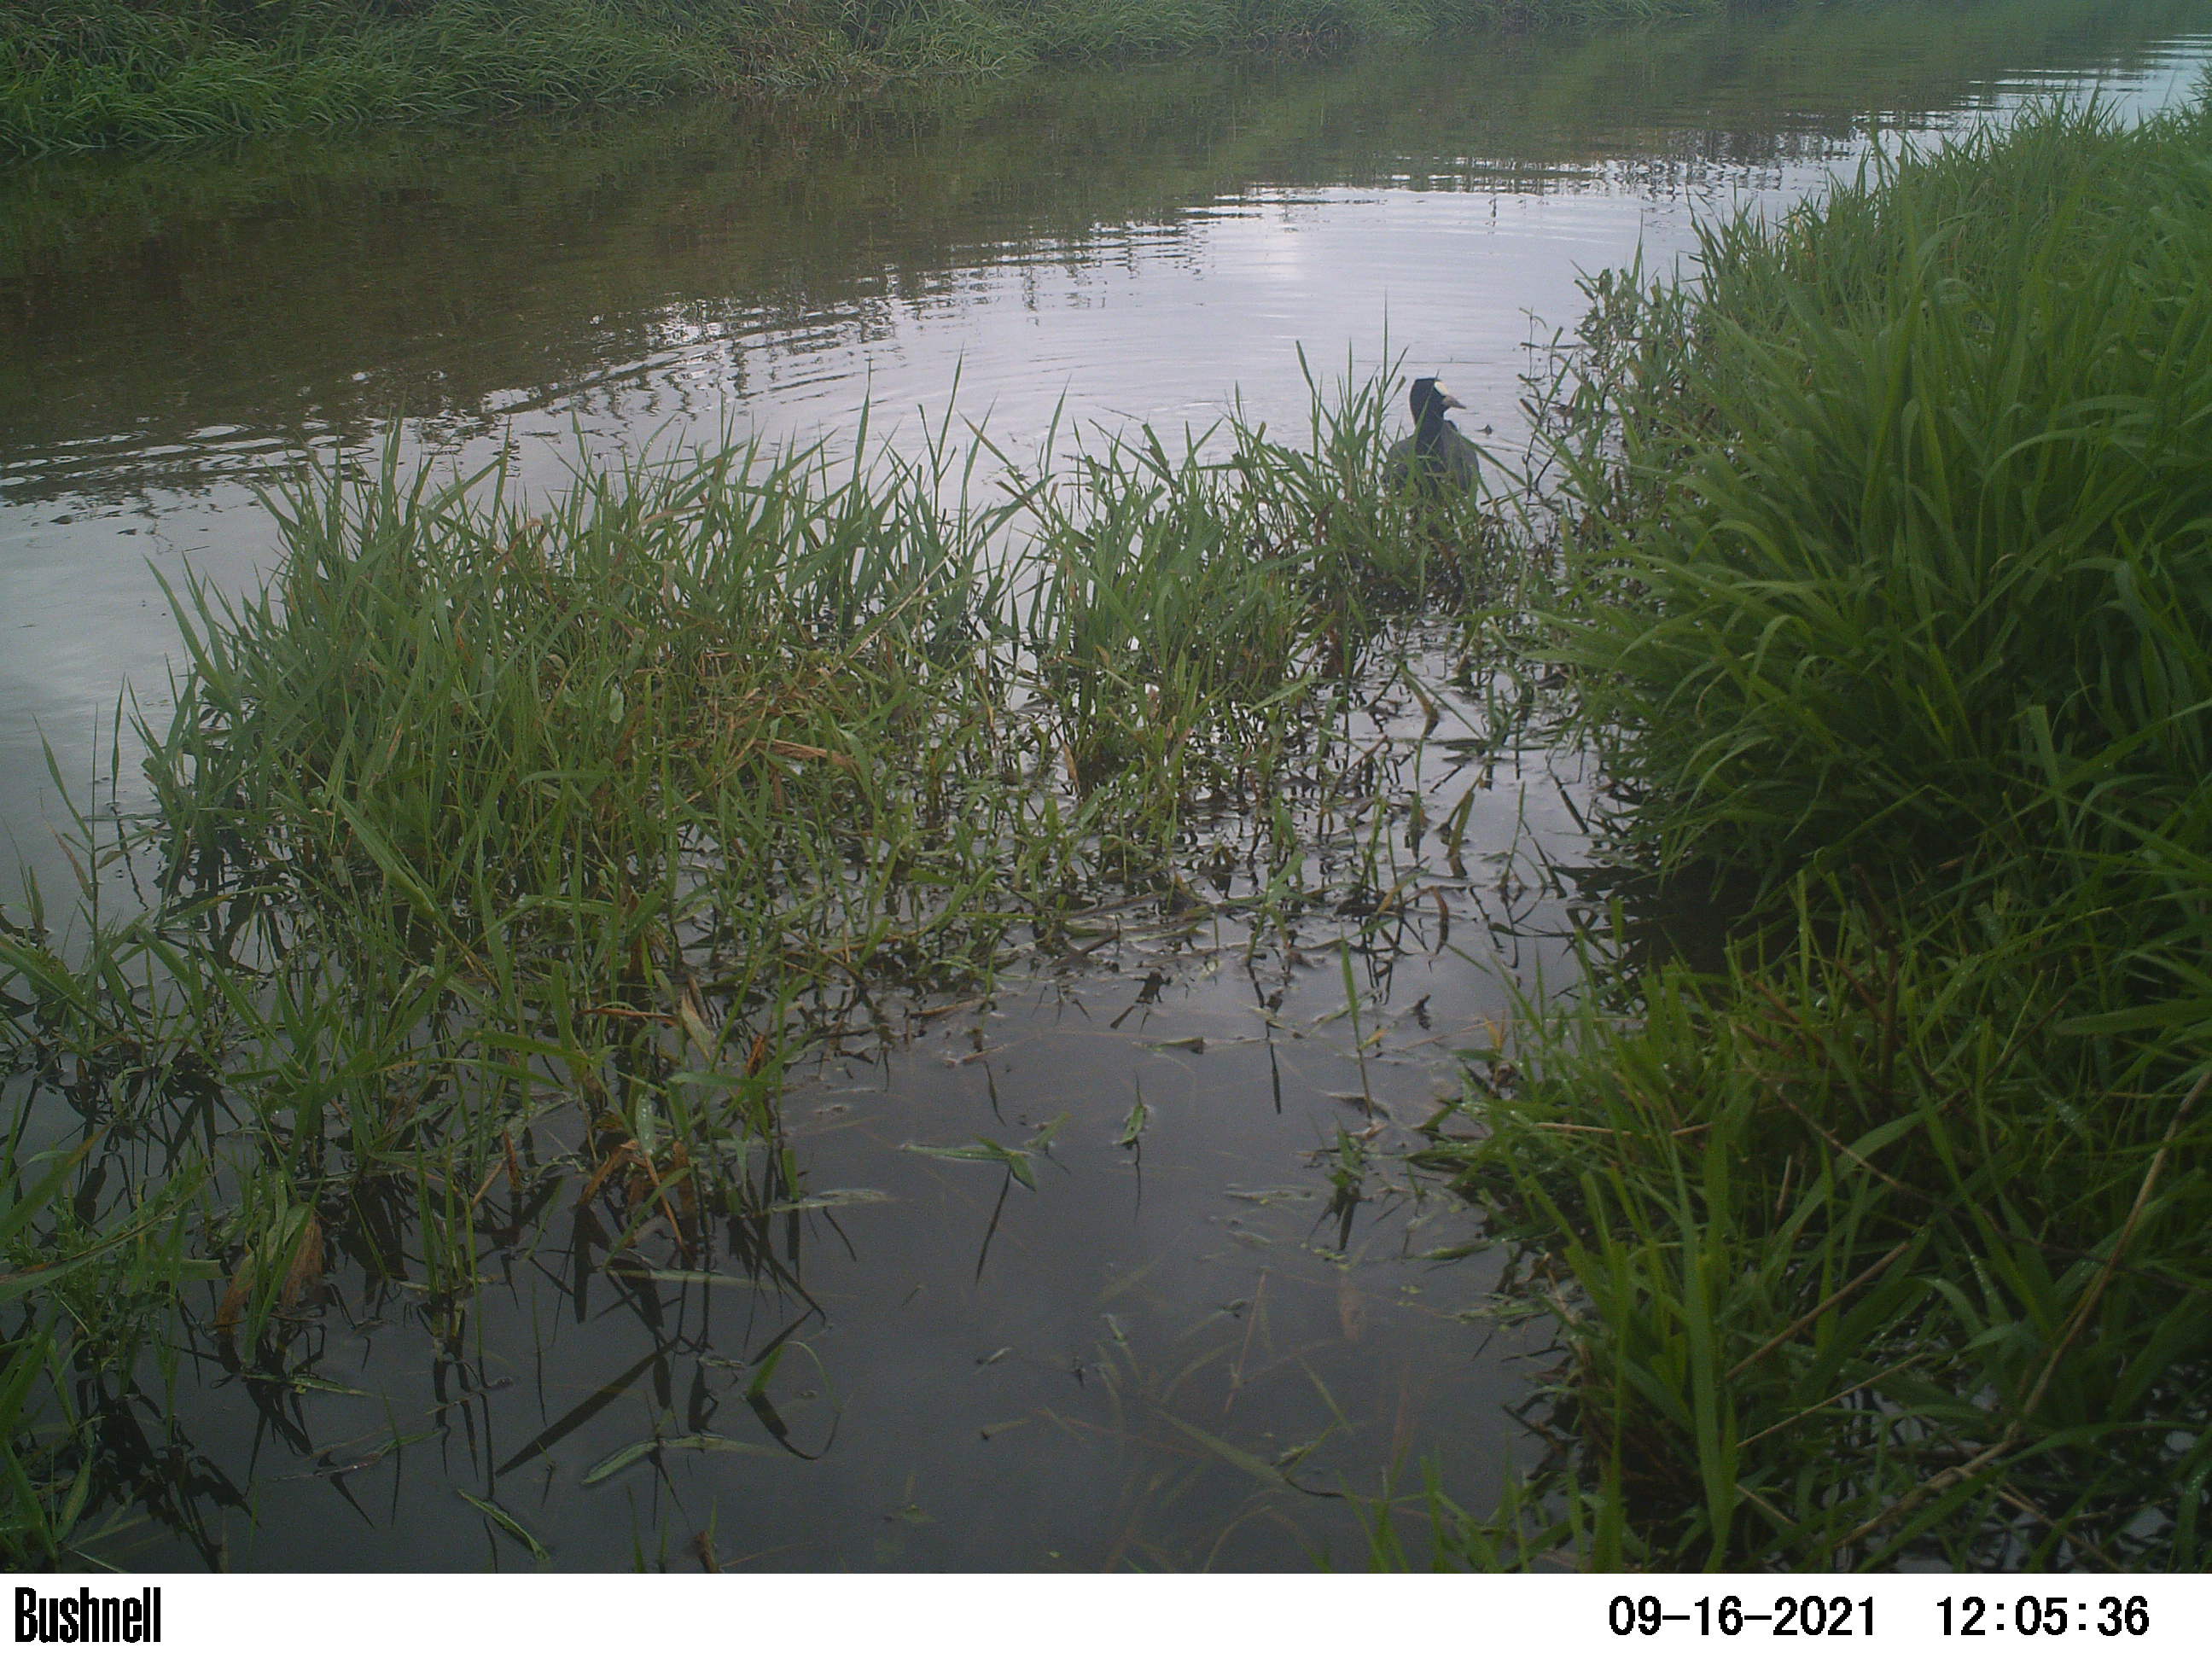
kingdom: Animalia
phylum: Chordata
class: Aves
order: Gruiformes
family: Rallidae
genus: Fulica
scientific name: Fulica atra
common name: Eurasian coot
